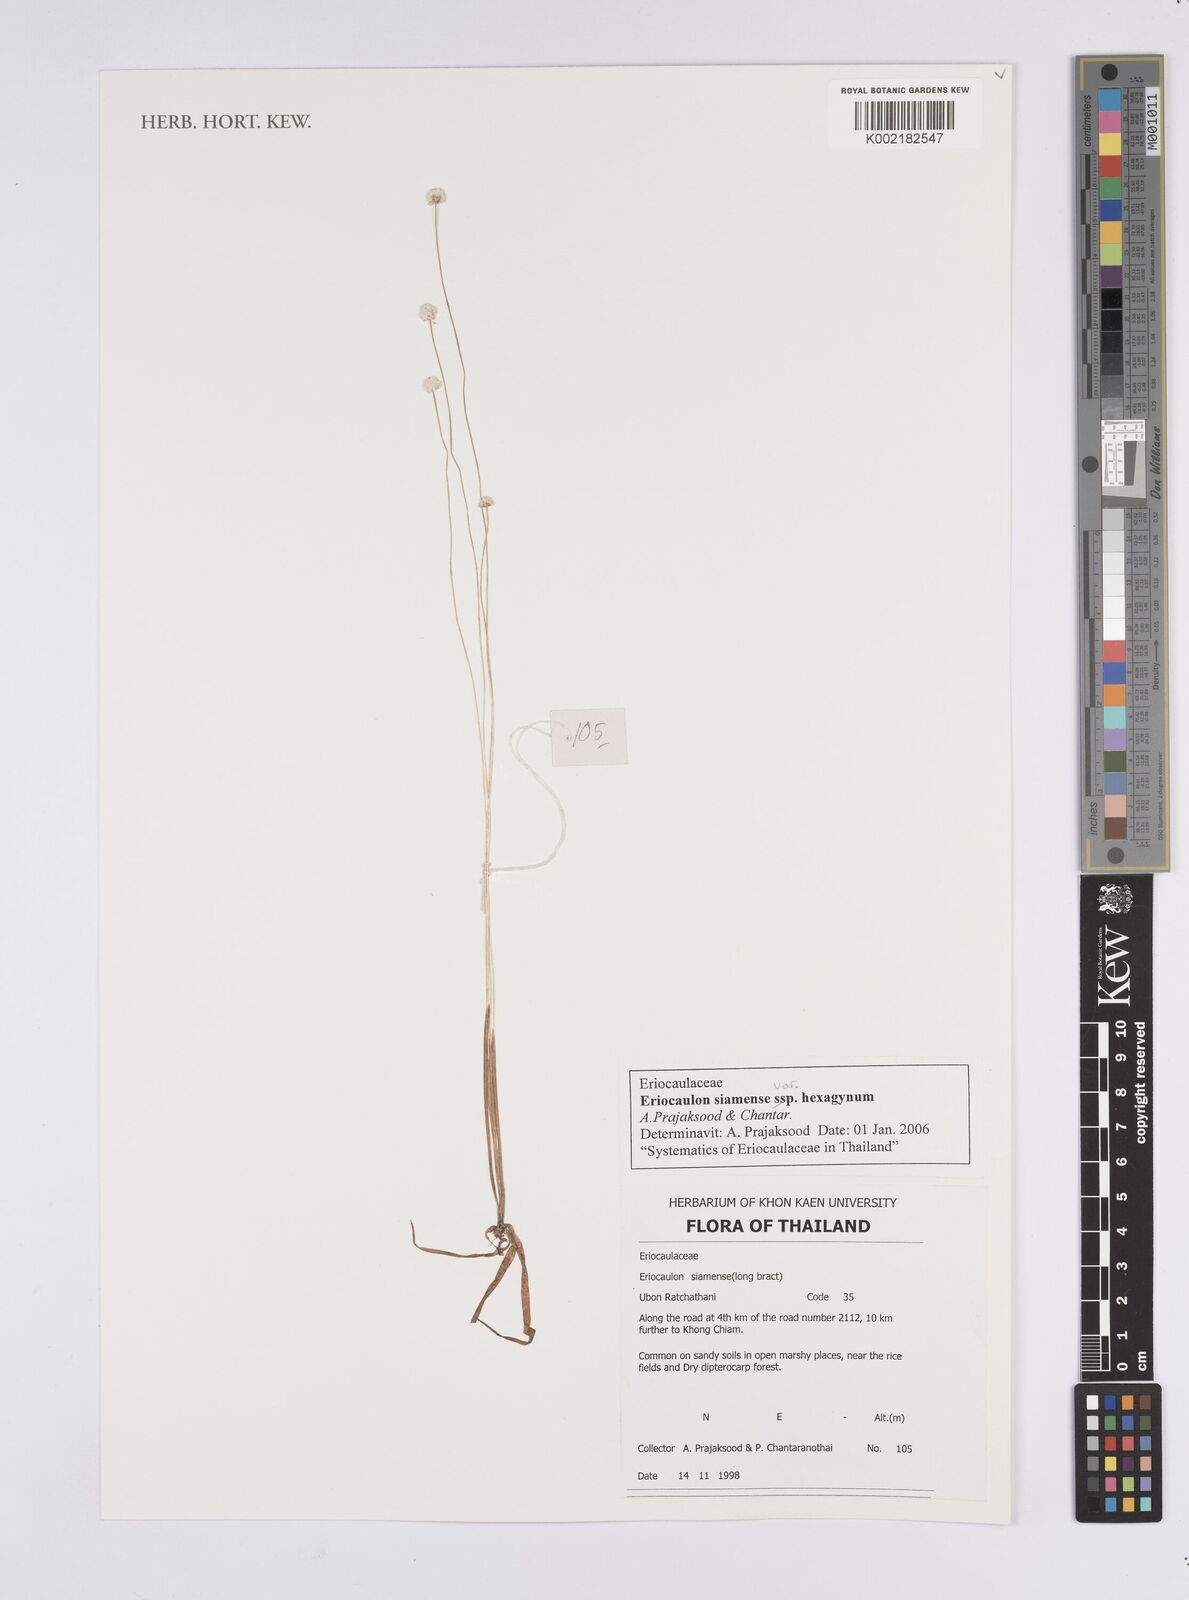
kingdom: Plantae
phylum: Tracheophyta
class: Liliopsida
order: Poales
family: Eriocaulaceae
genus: Eriocaulon
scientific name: Eriocaulon siamense
